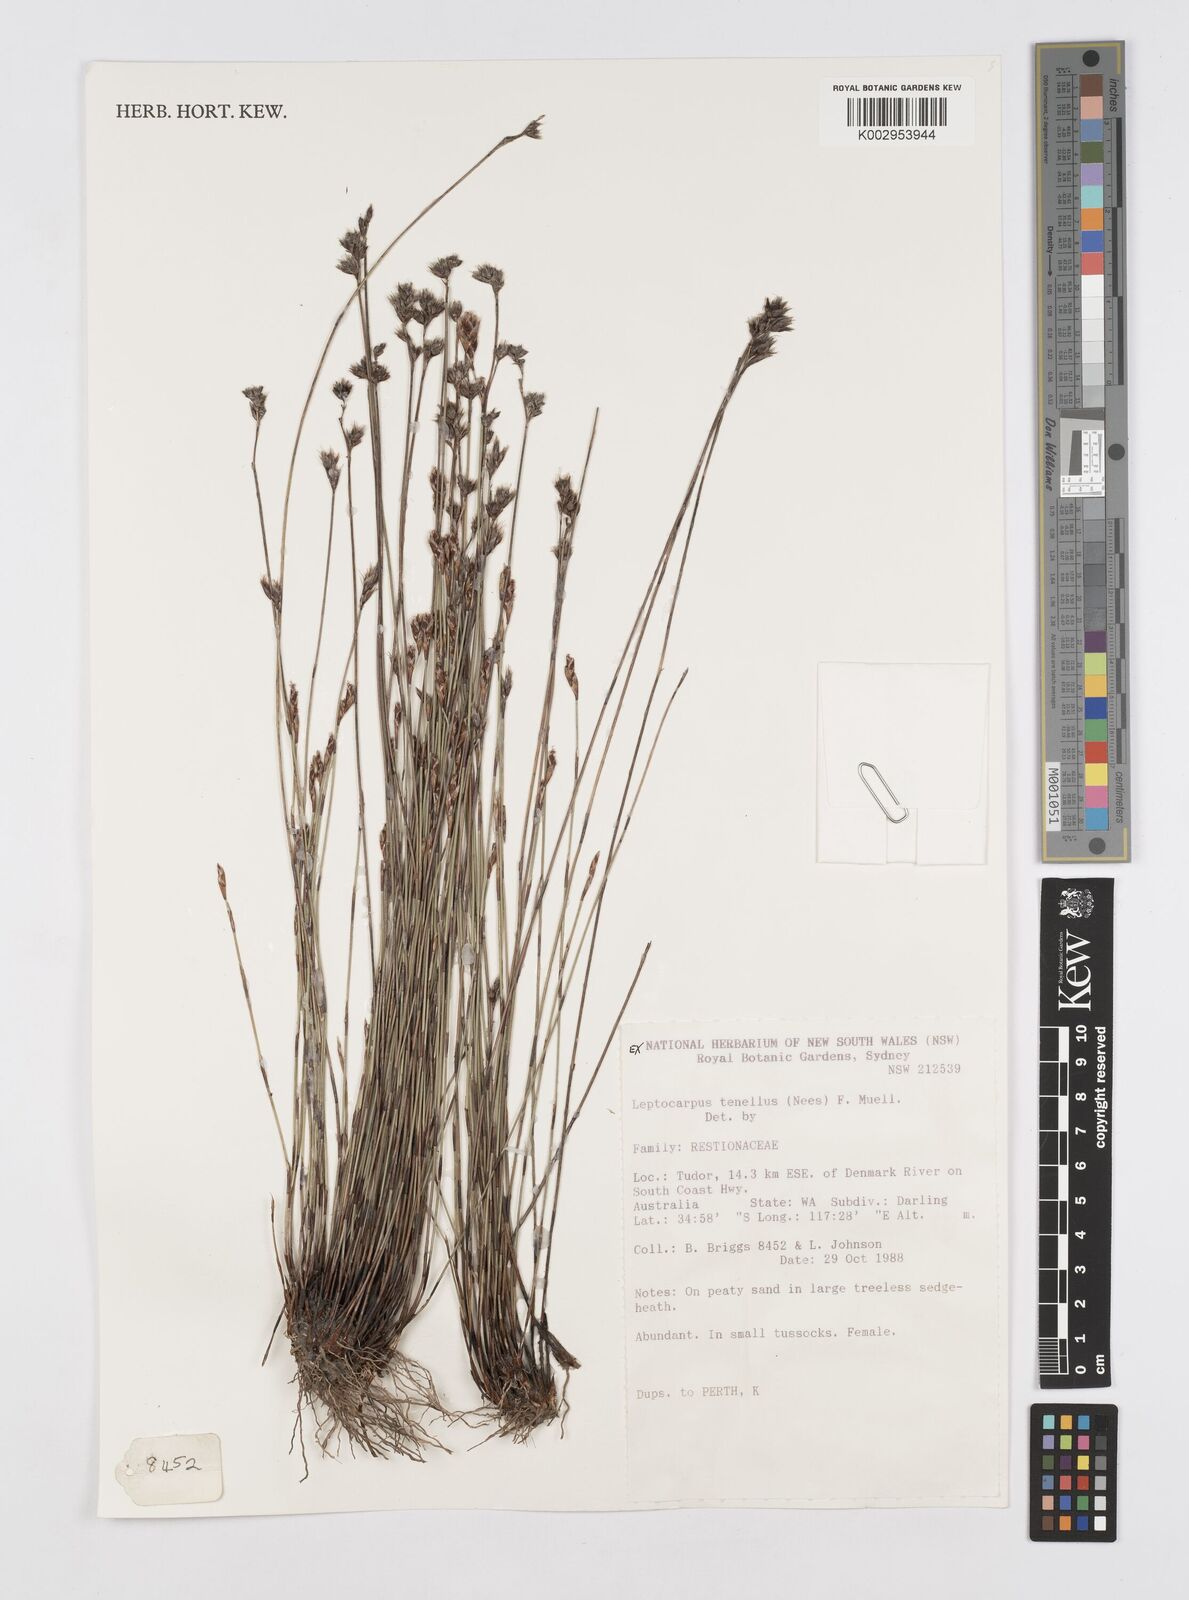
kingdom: Plantae
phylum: Tracheophyta
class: Liliopsida
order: Poales
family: Restionaceae
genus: Chaetanthus
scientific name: Chaetanthus tenellus
